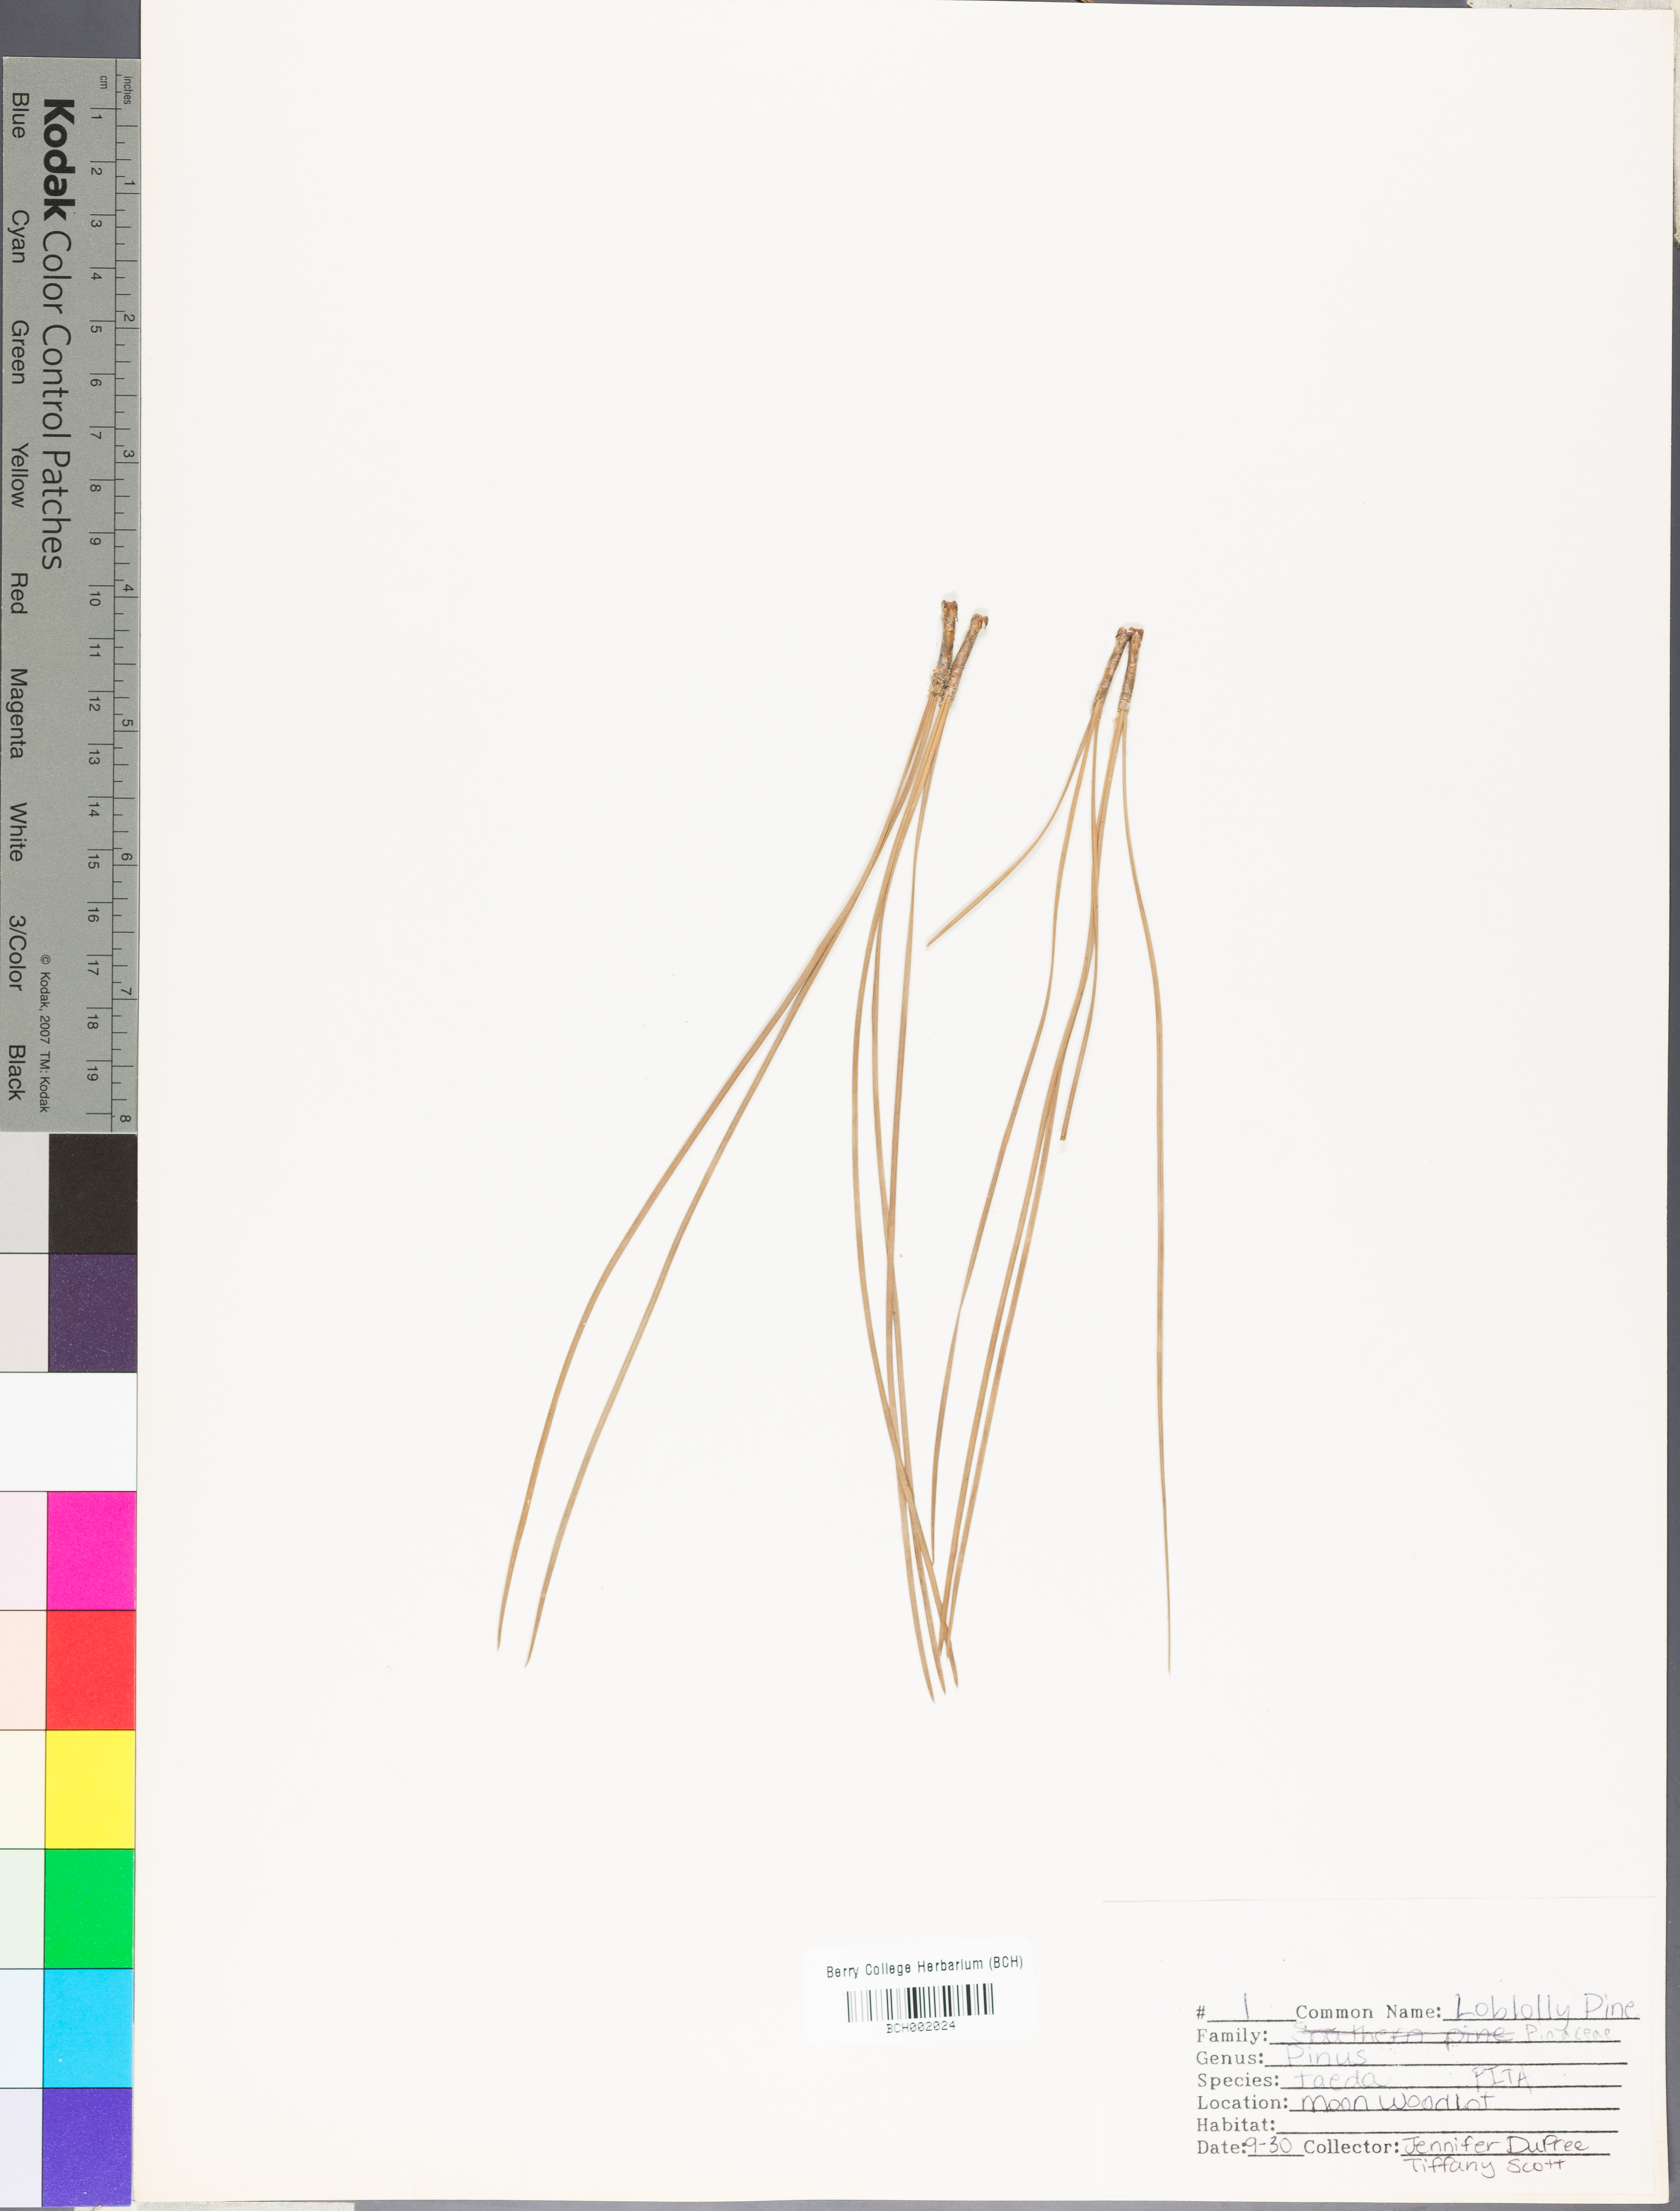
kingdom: Plantae
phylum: Tracheophyta
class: Pinopsida
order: Pinales
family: Pinaceae
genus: Pinus
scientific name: Pinus taeda
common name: Loblolly pine
